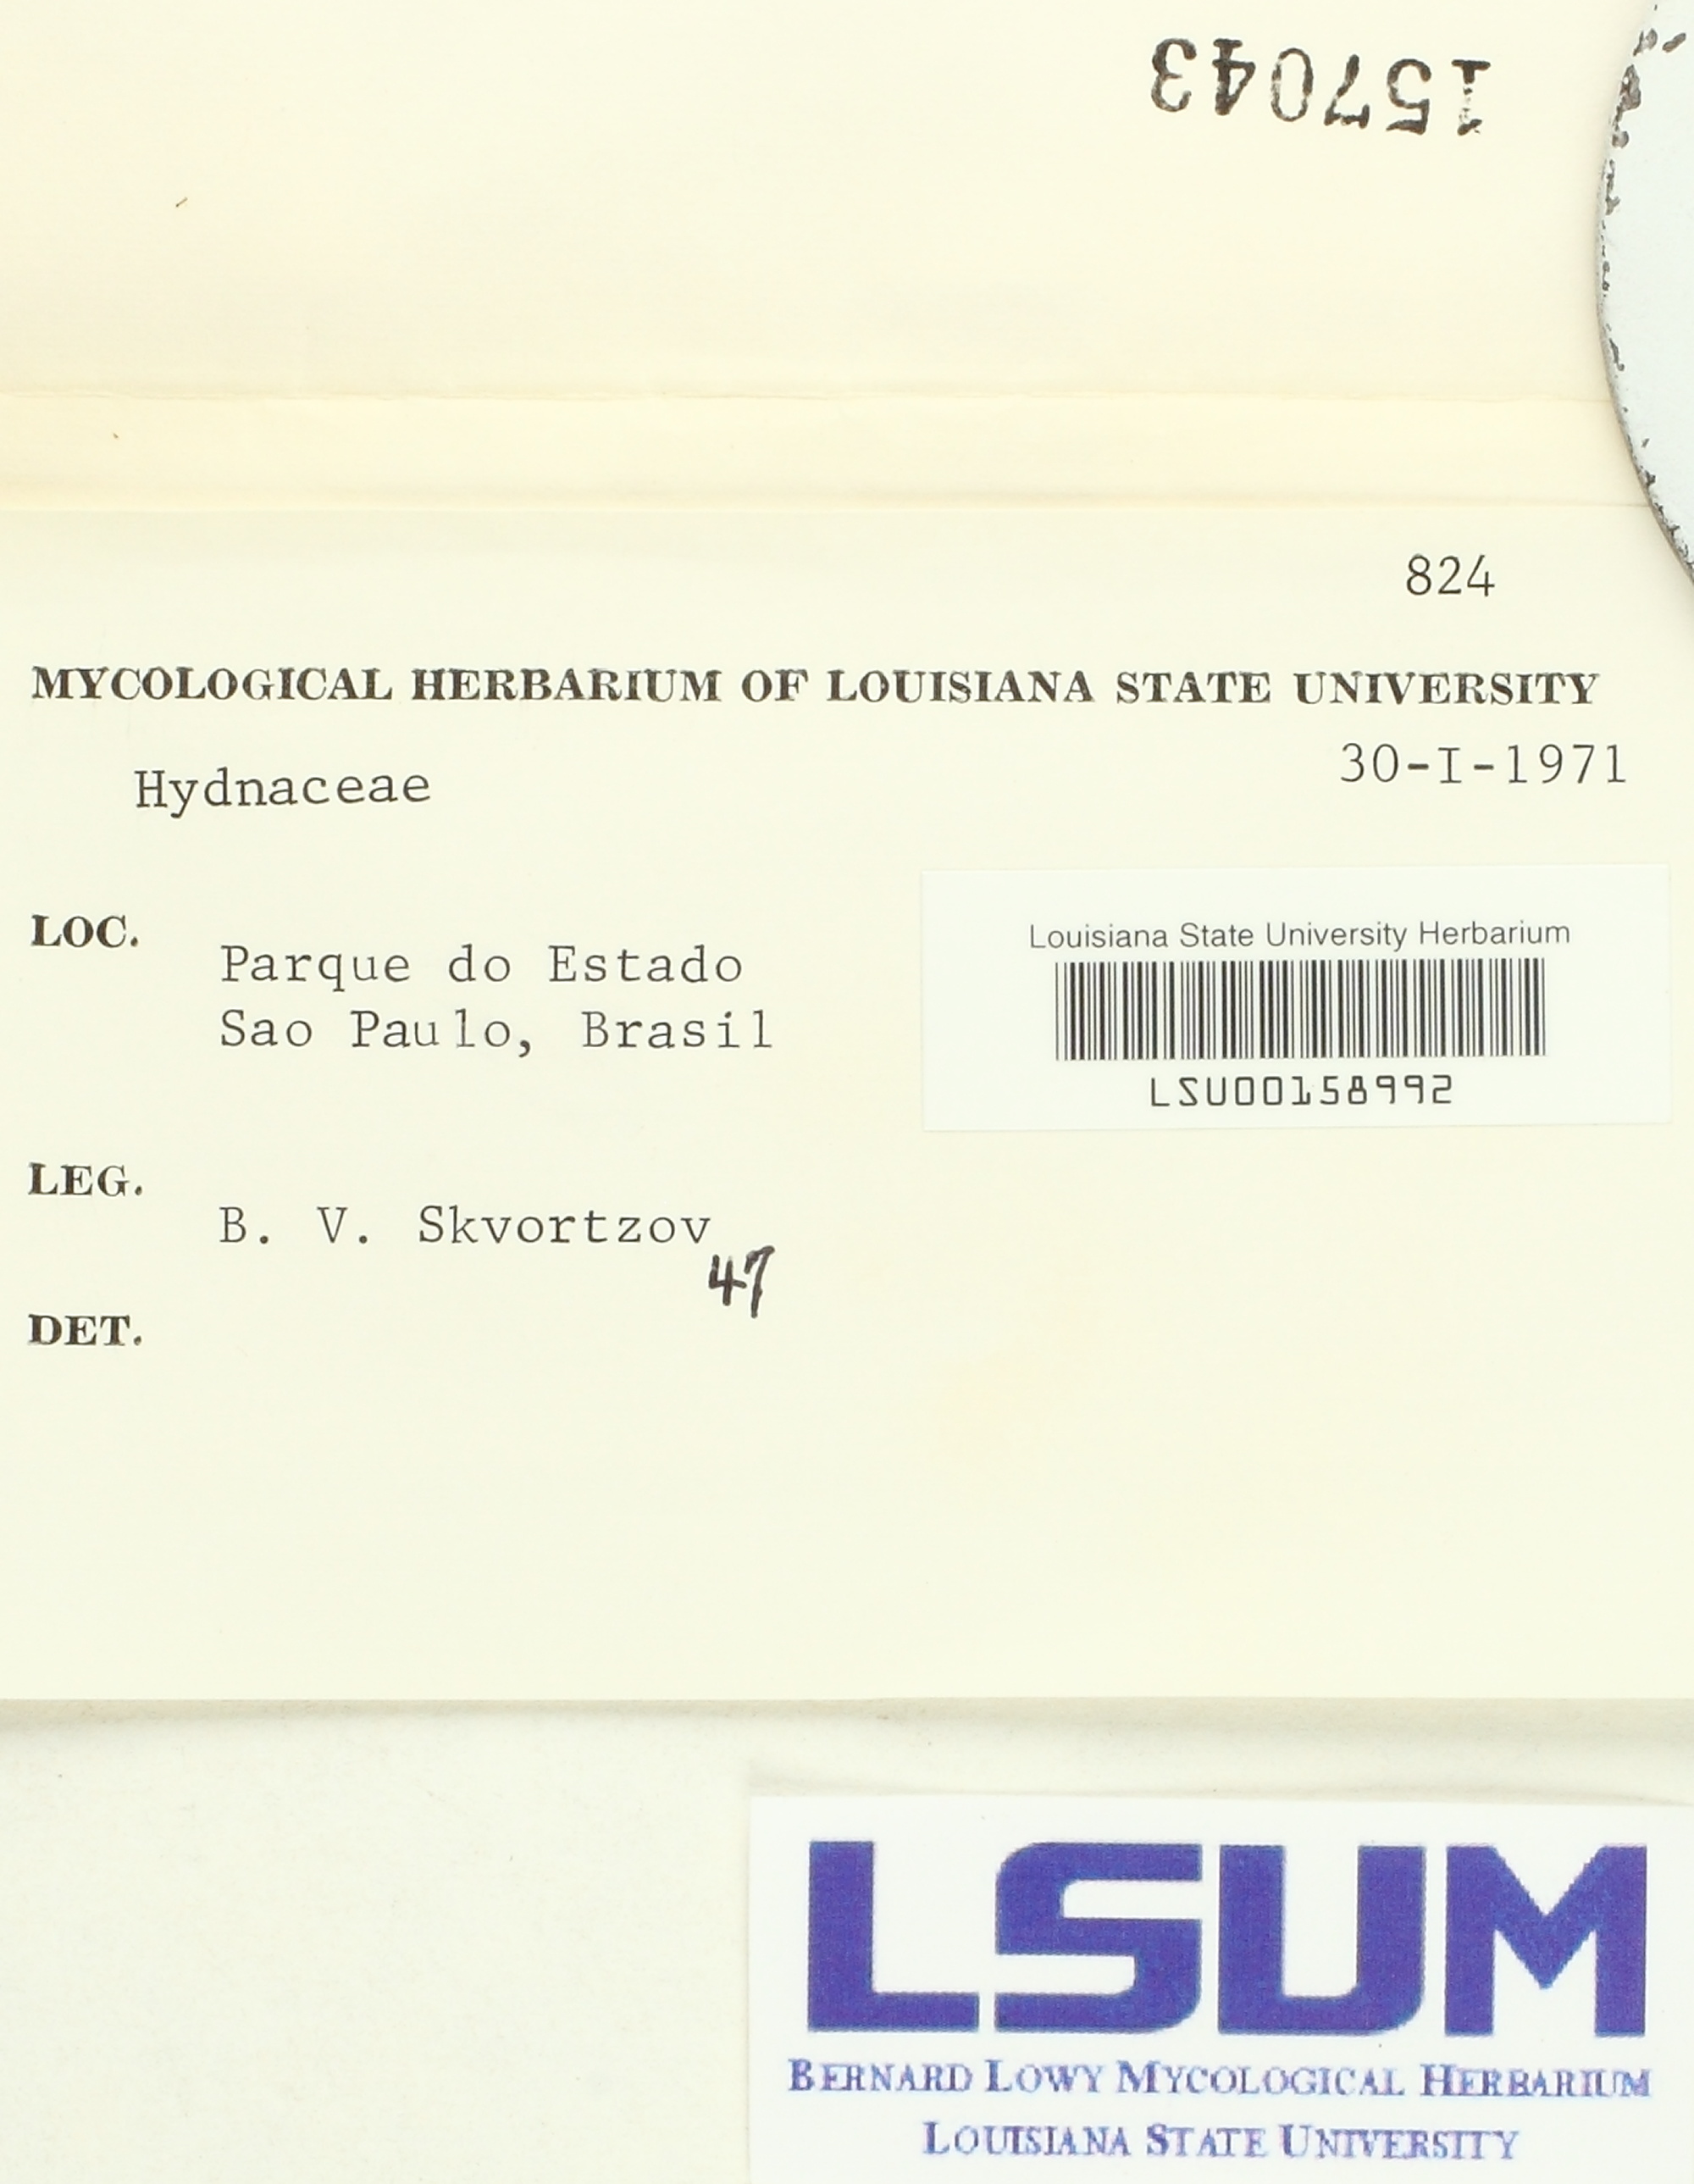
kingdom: Fungi
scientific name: Fungi
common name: Fungi
